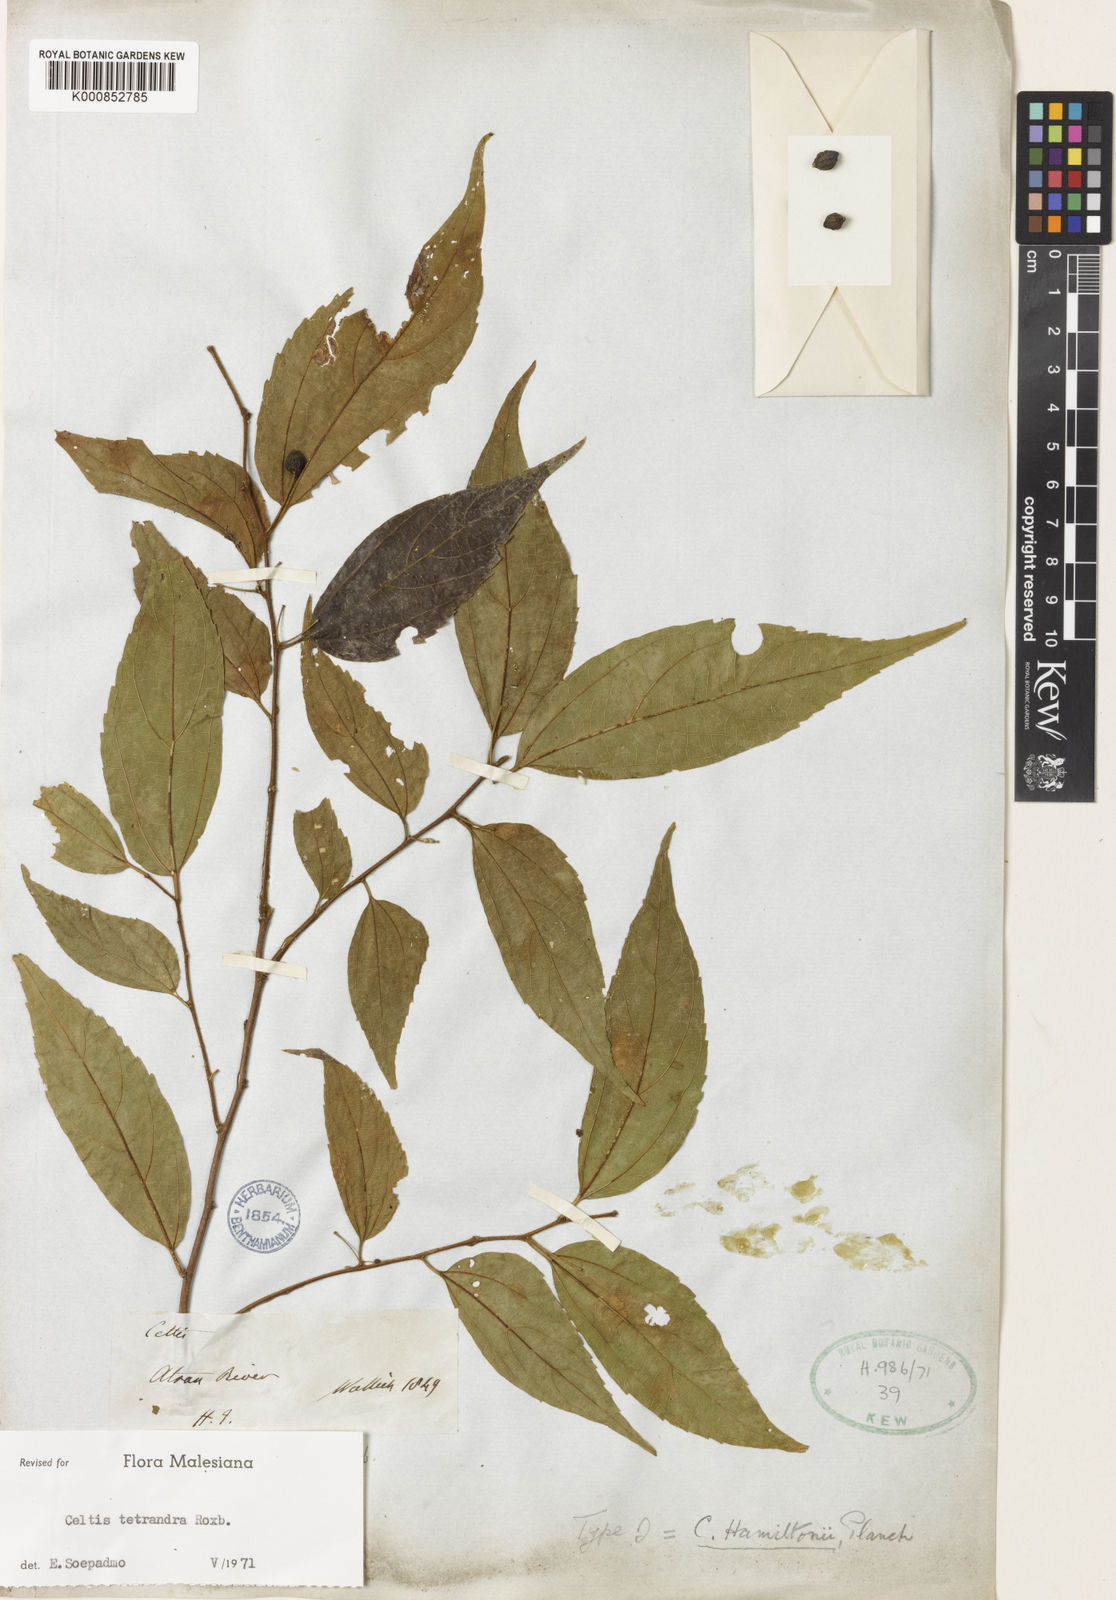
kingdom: Plantae
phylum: Tracheophyta
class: Magnoliopsida
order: Rosales
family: Cannabaceae
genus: Celtis
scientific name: Celtis tetrandra
